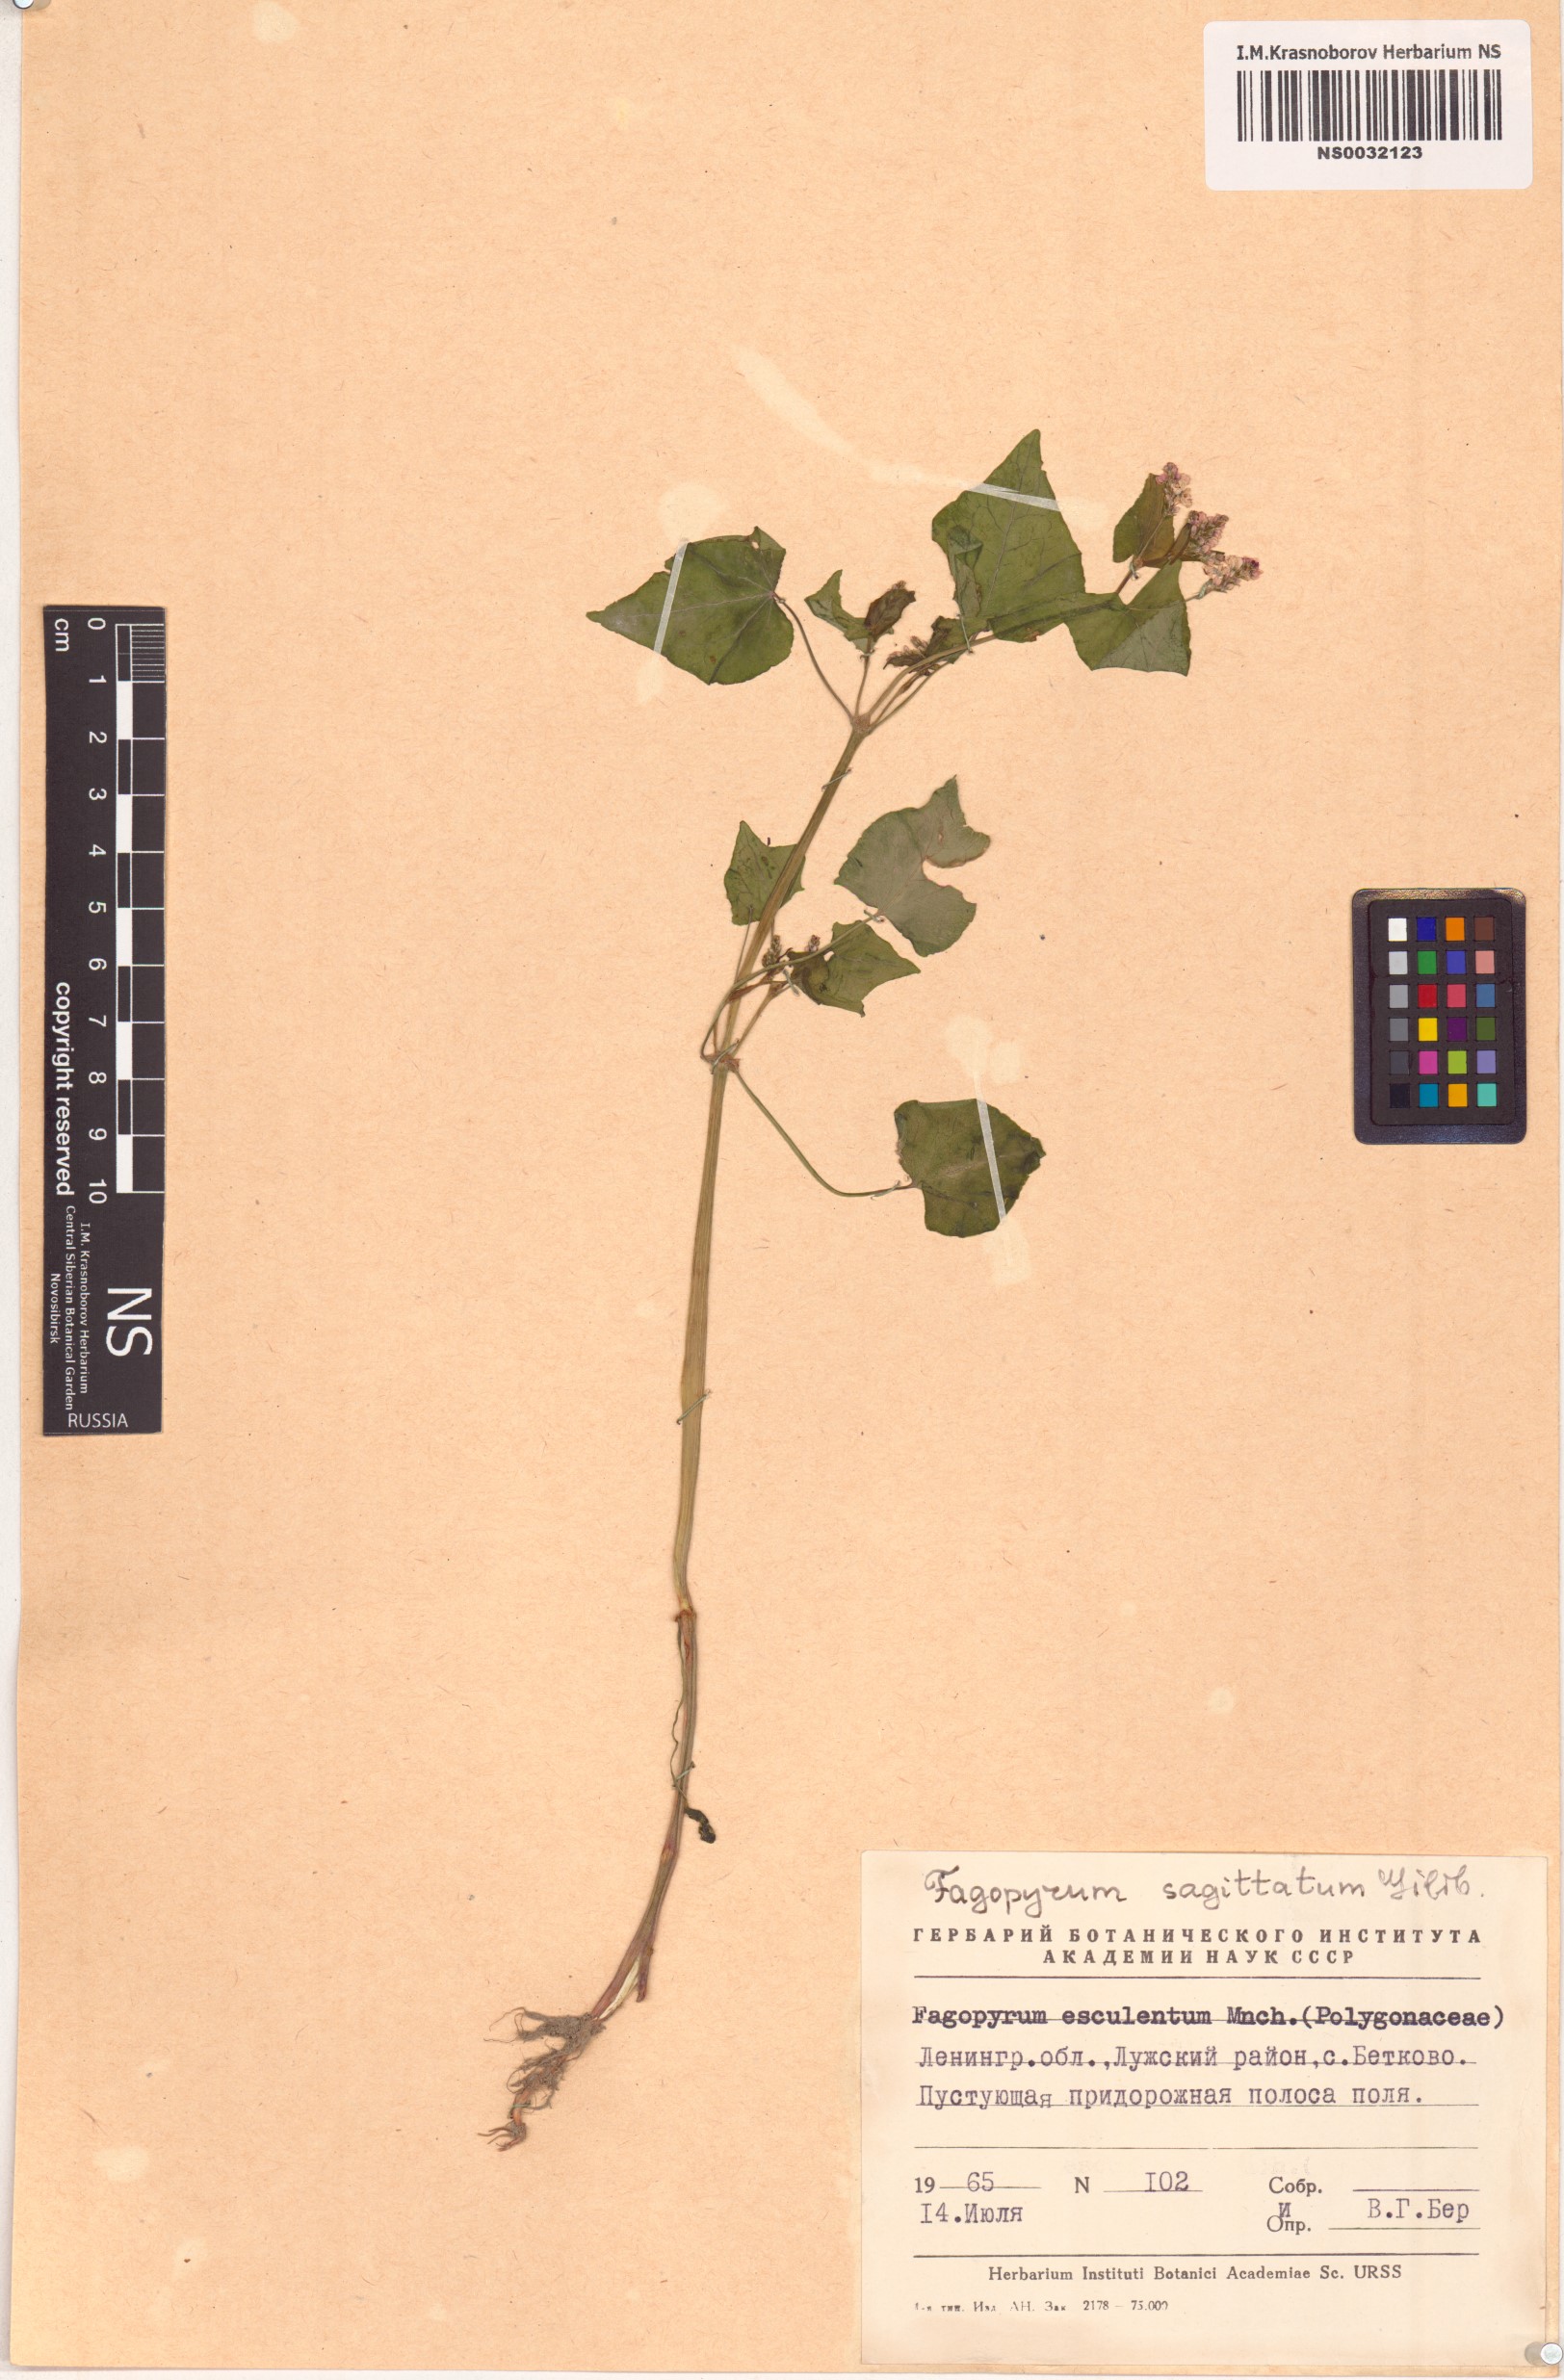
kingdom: Plantae
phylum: Tracheophyta
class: Magnoliopsida
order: Caryophyllales
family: Polygonaceae
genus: Fagopyrum
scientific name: Fagopyrum esculentum
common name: Buckwheat
